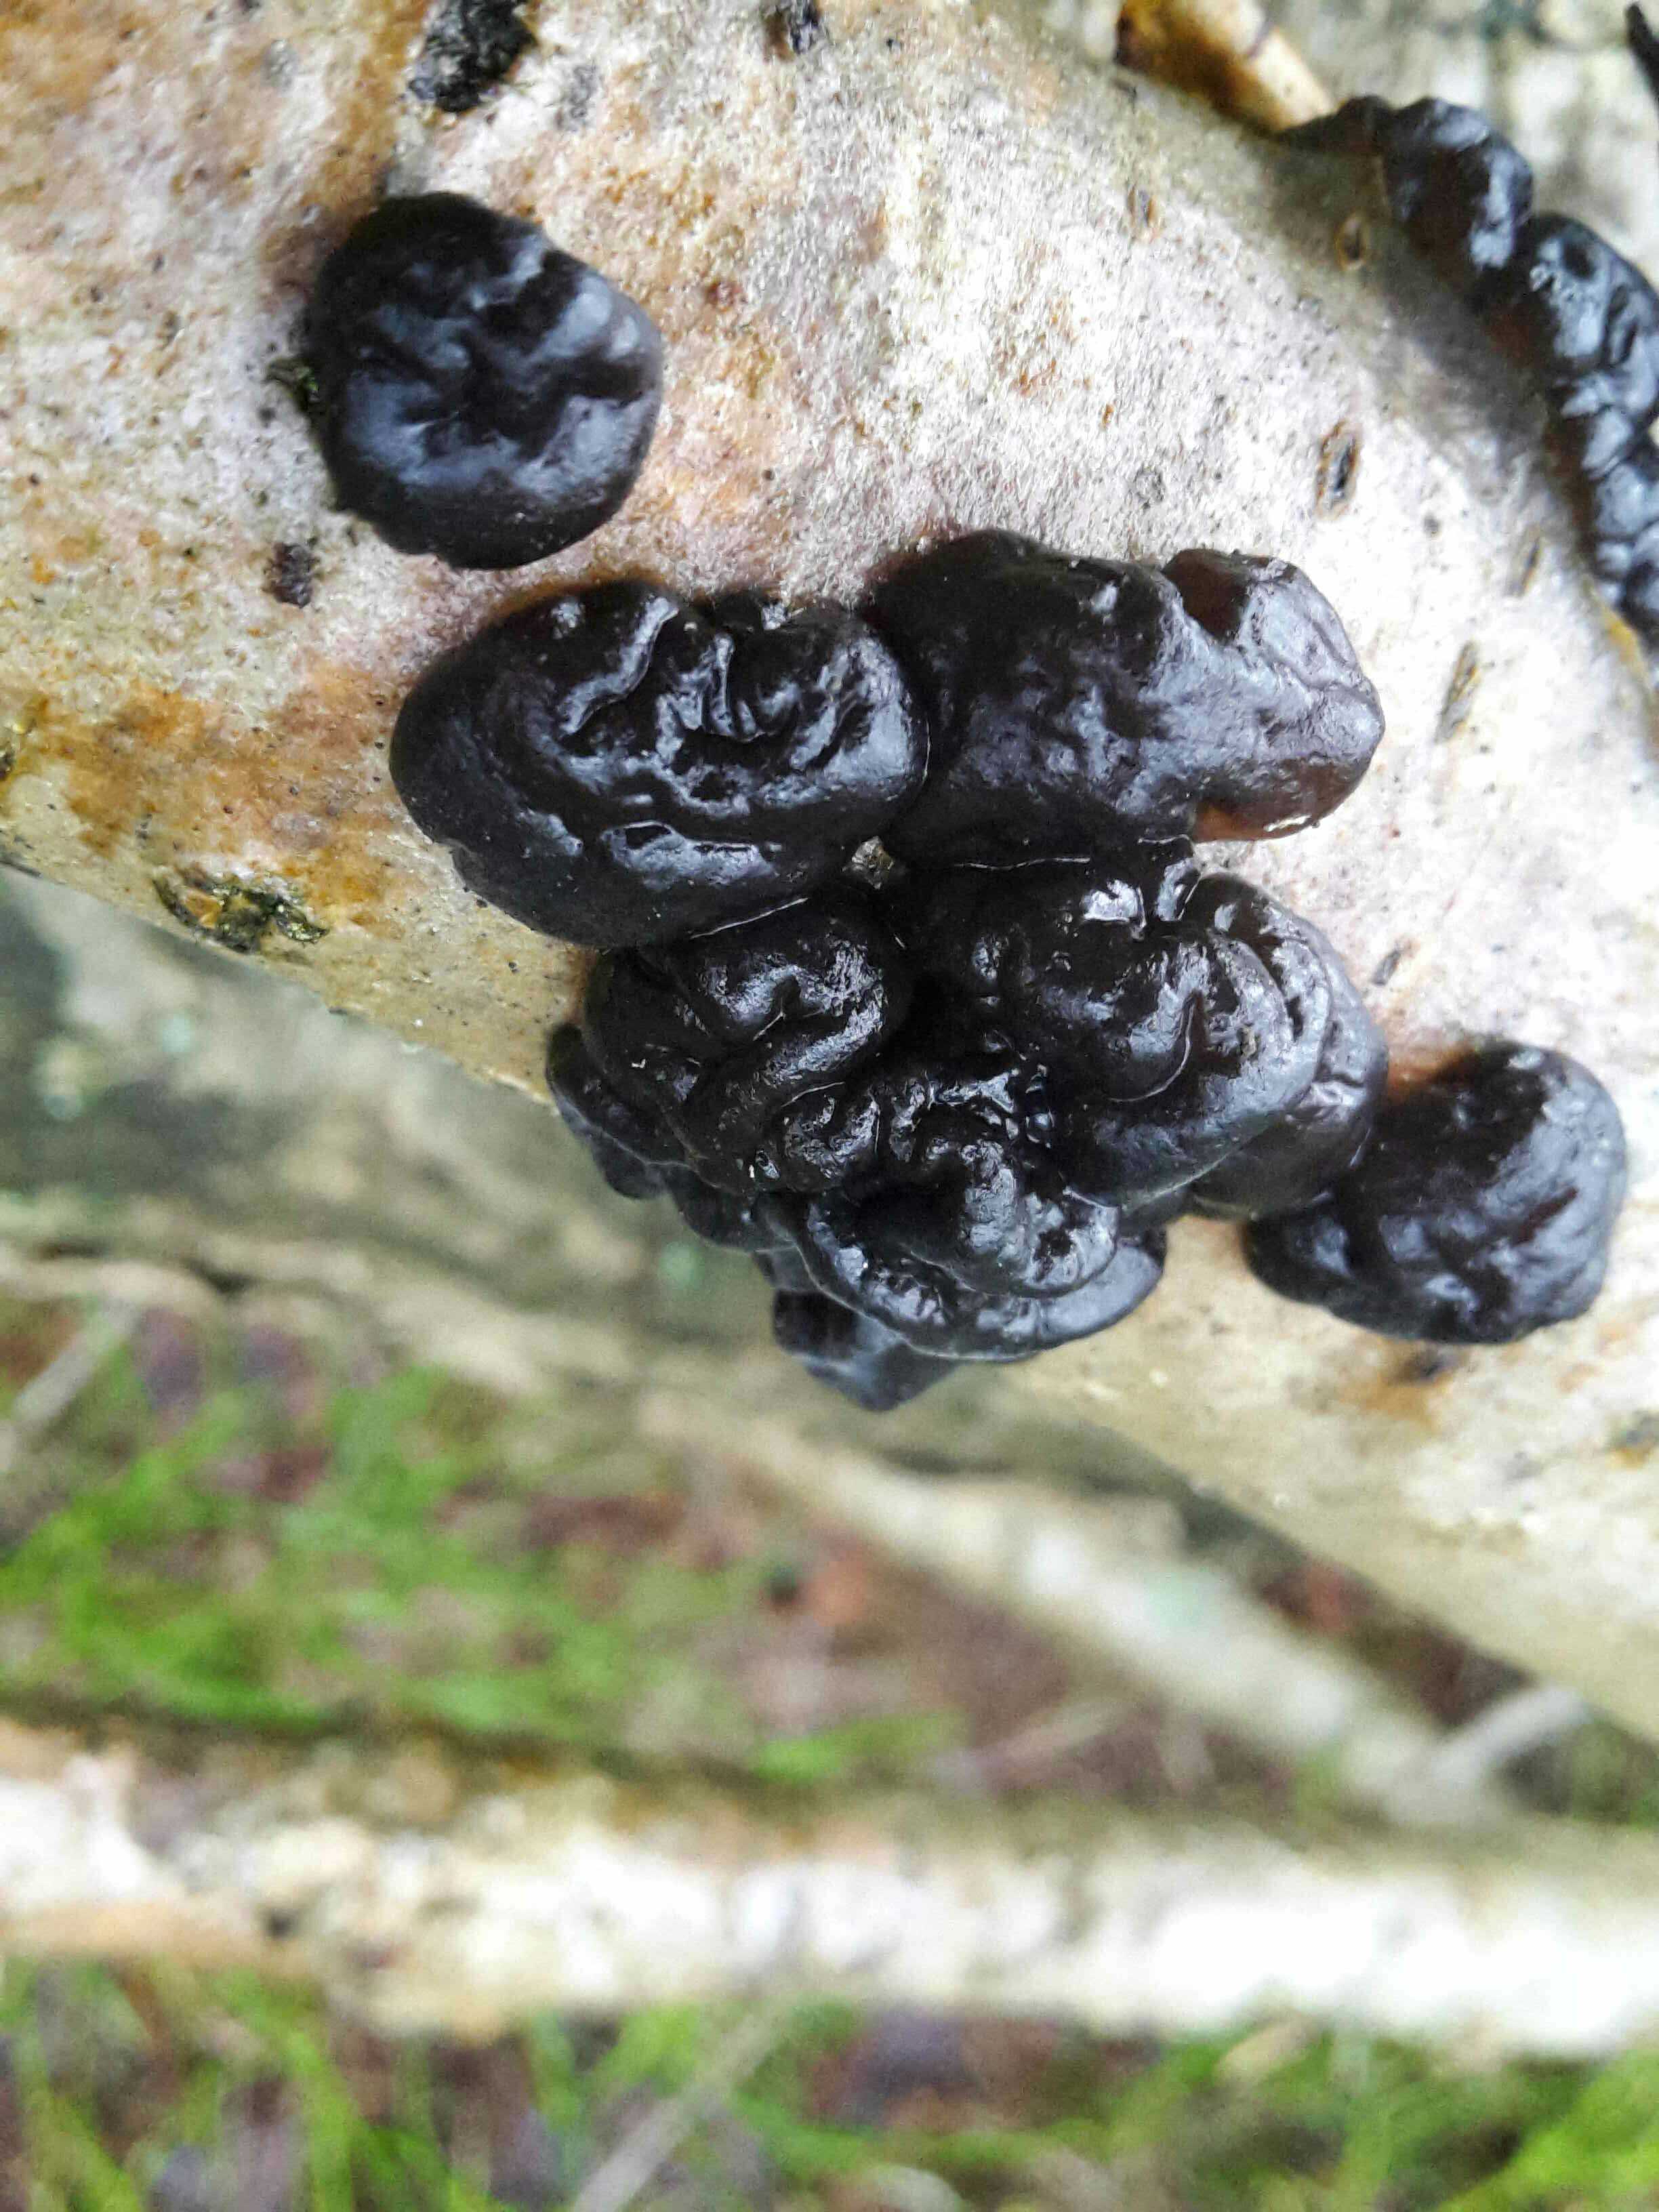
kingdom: Fungi
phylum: Basidiomycota
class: Agaricomycetes
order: Auriculariales
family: Auriculariaceae
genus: Exidia
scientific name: Exidia nigricans
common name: almindelig bævretop
